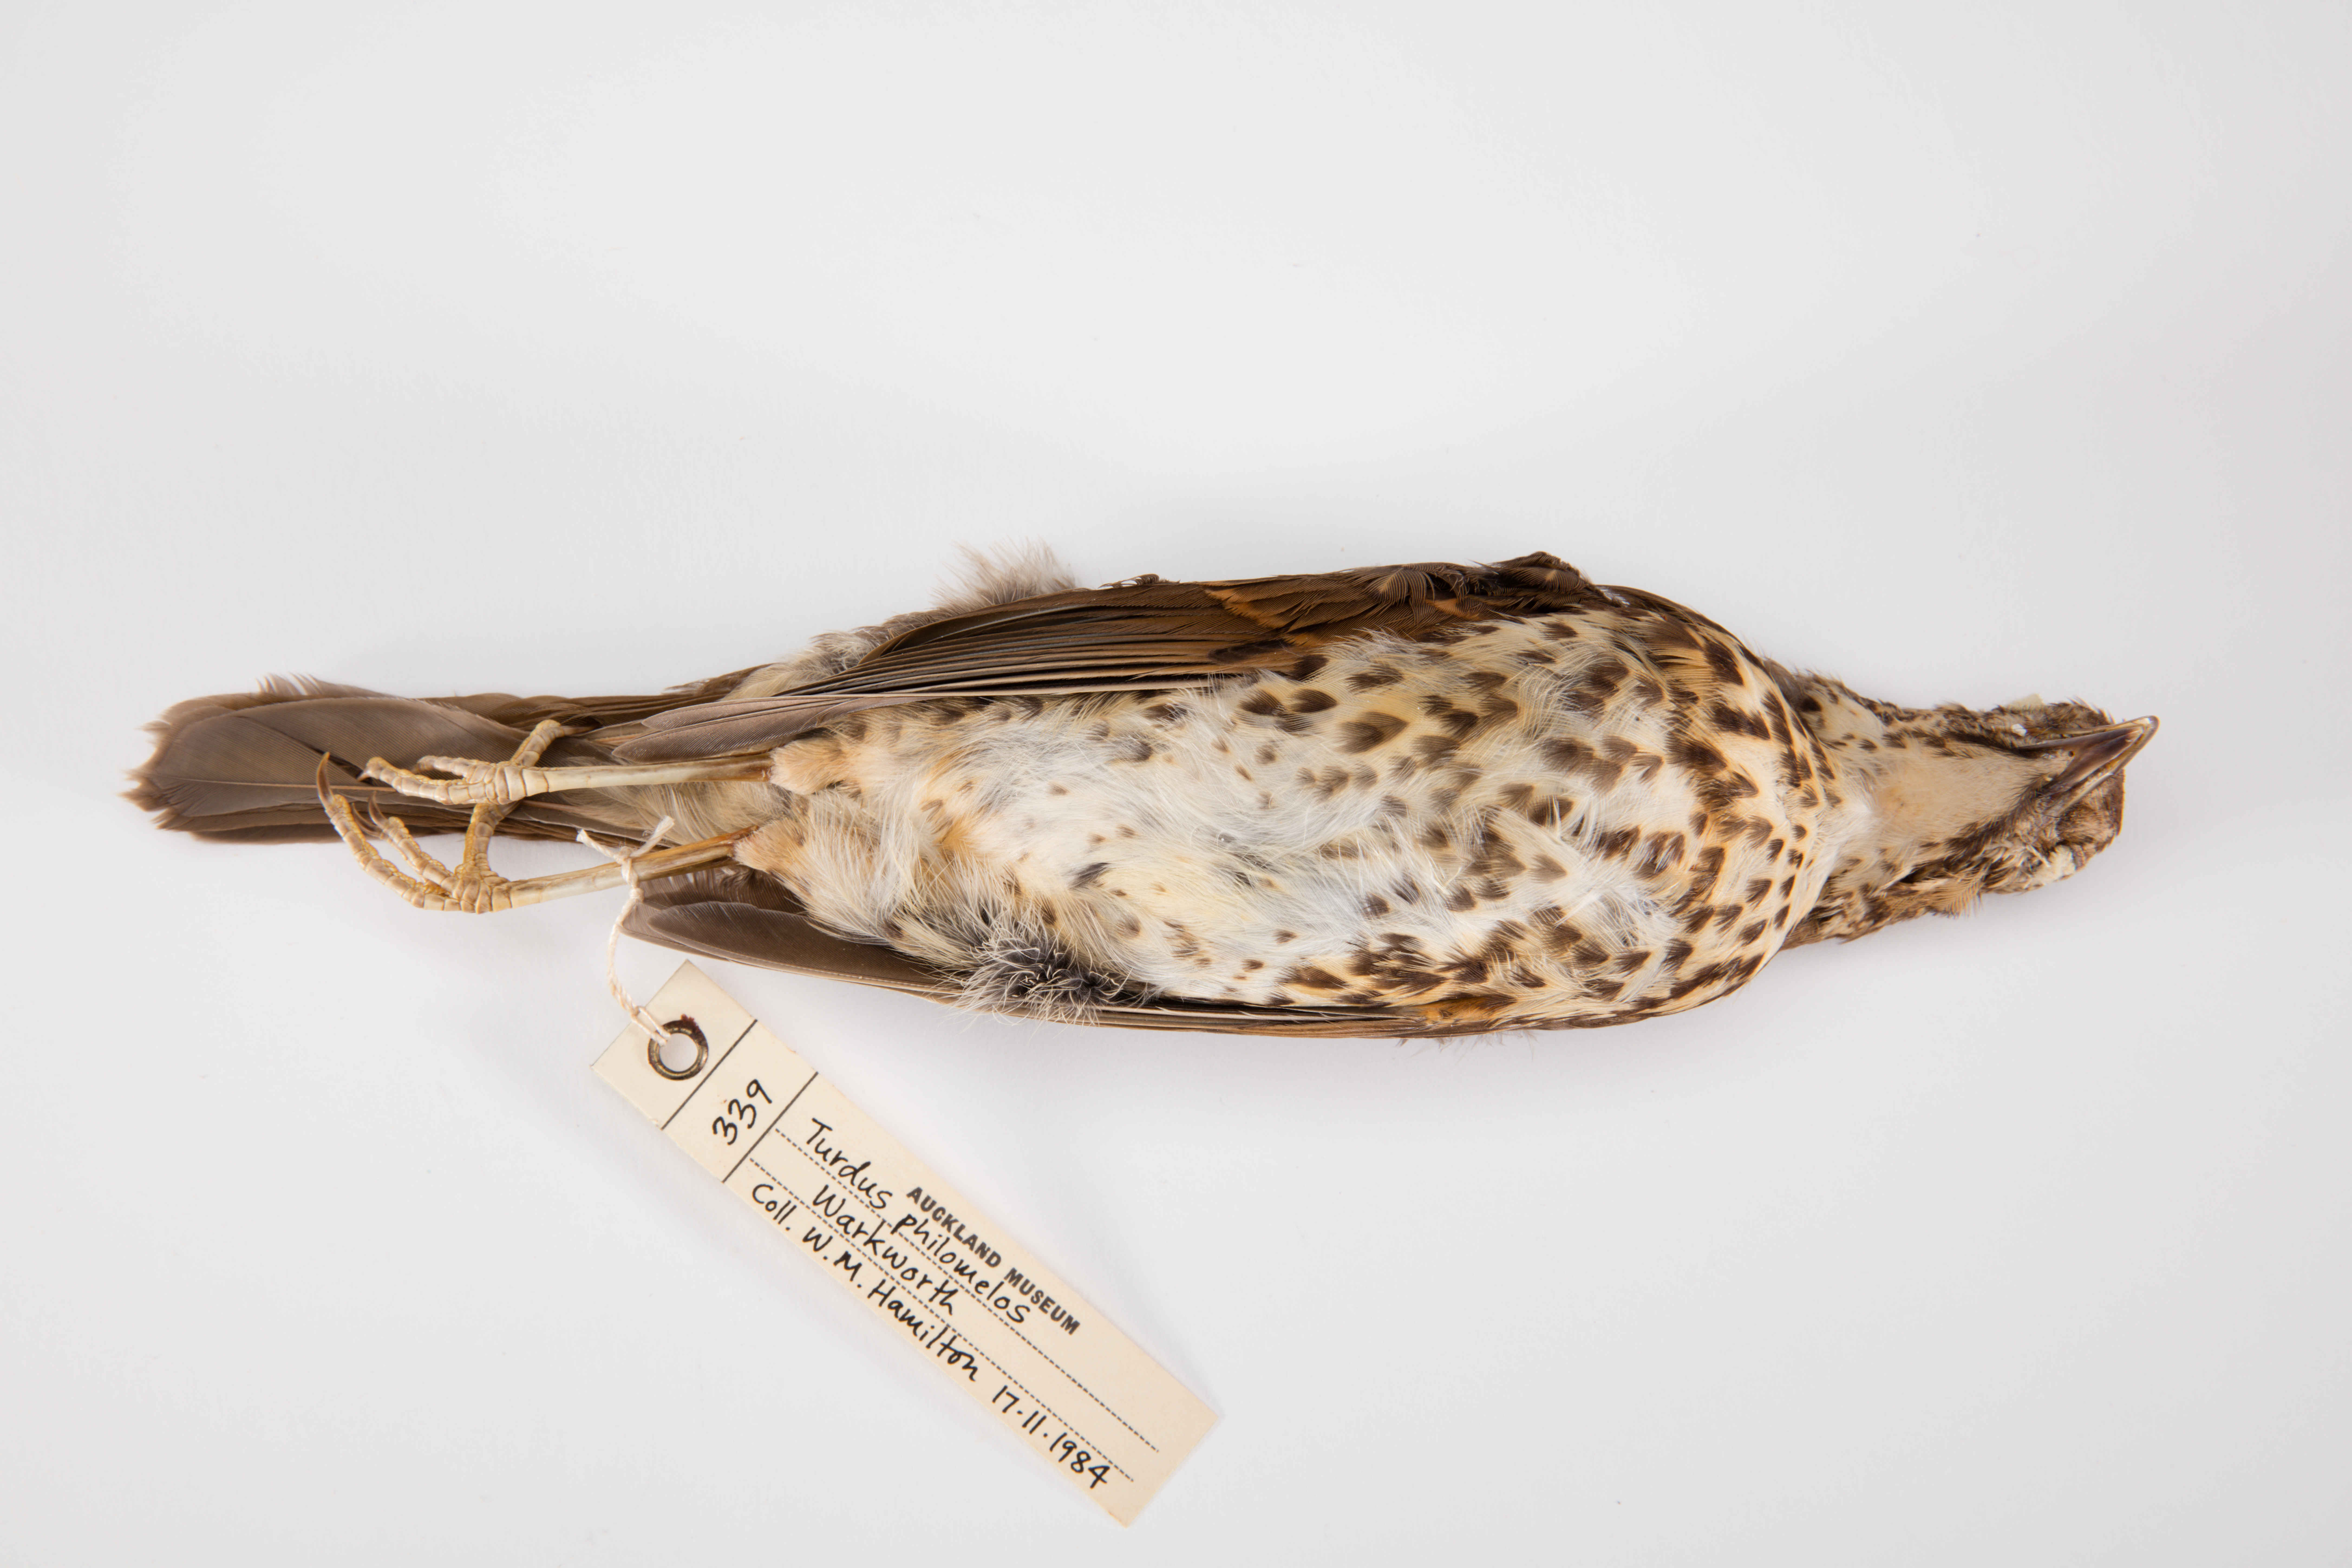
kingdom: Animalia
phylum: Chordata
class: Aves
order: Passeriformes
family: Turdidae
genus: Turdus
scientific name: Turdus philomelos
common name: Song thrush
